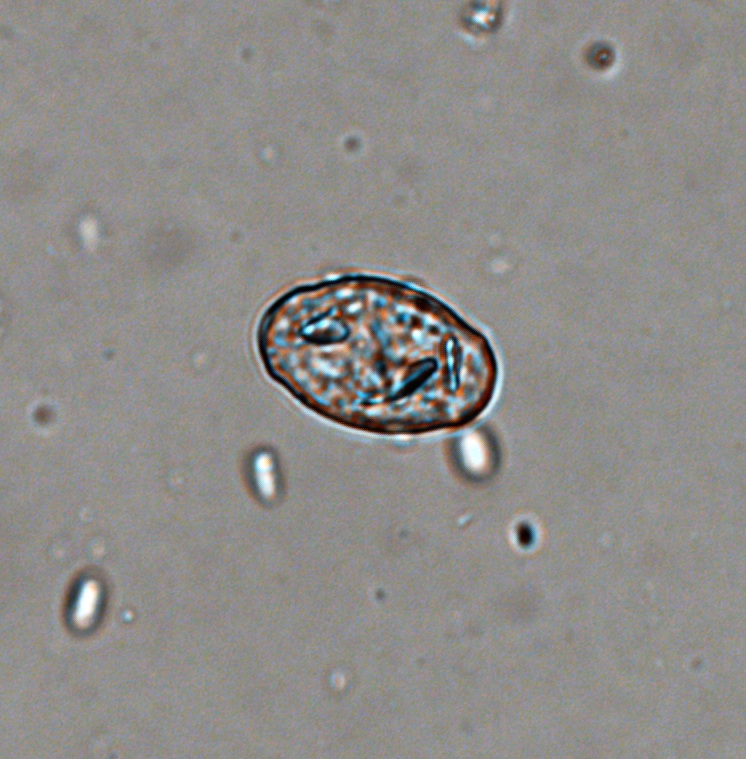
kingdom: Fungi
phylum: Ascomycota
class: Leotiomycetes
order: Helotiales
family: Erysiphaceae
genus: Podosphaera
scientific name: Podosphaera mors-uvae
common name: American gooseberry mildew
